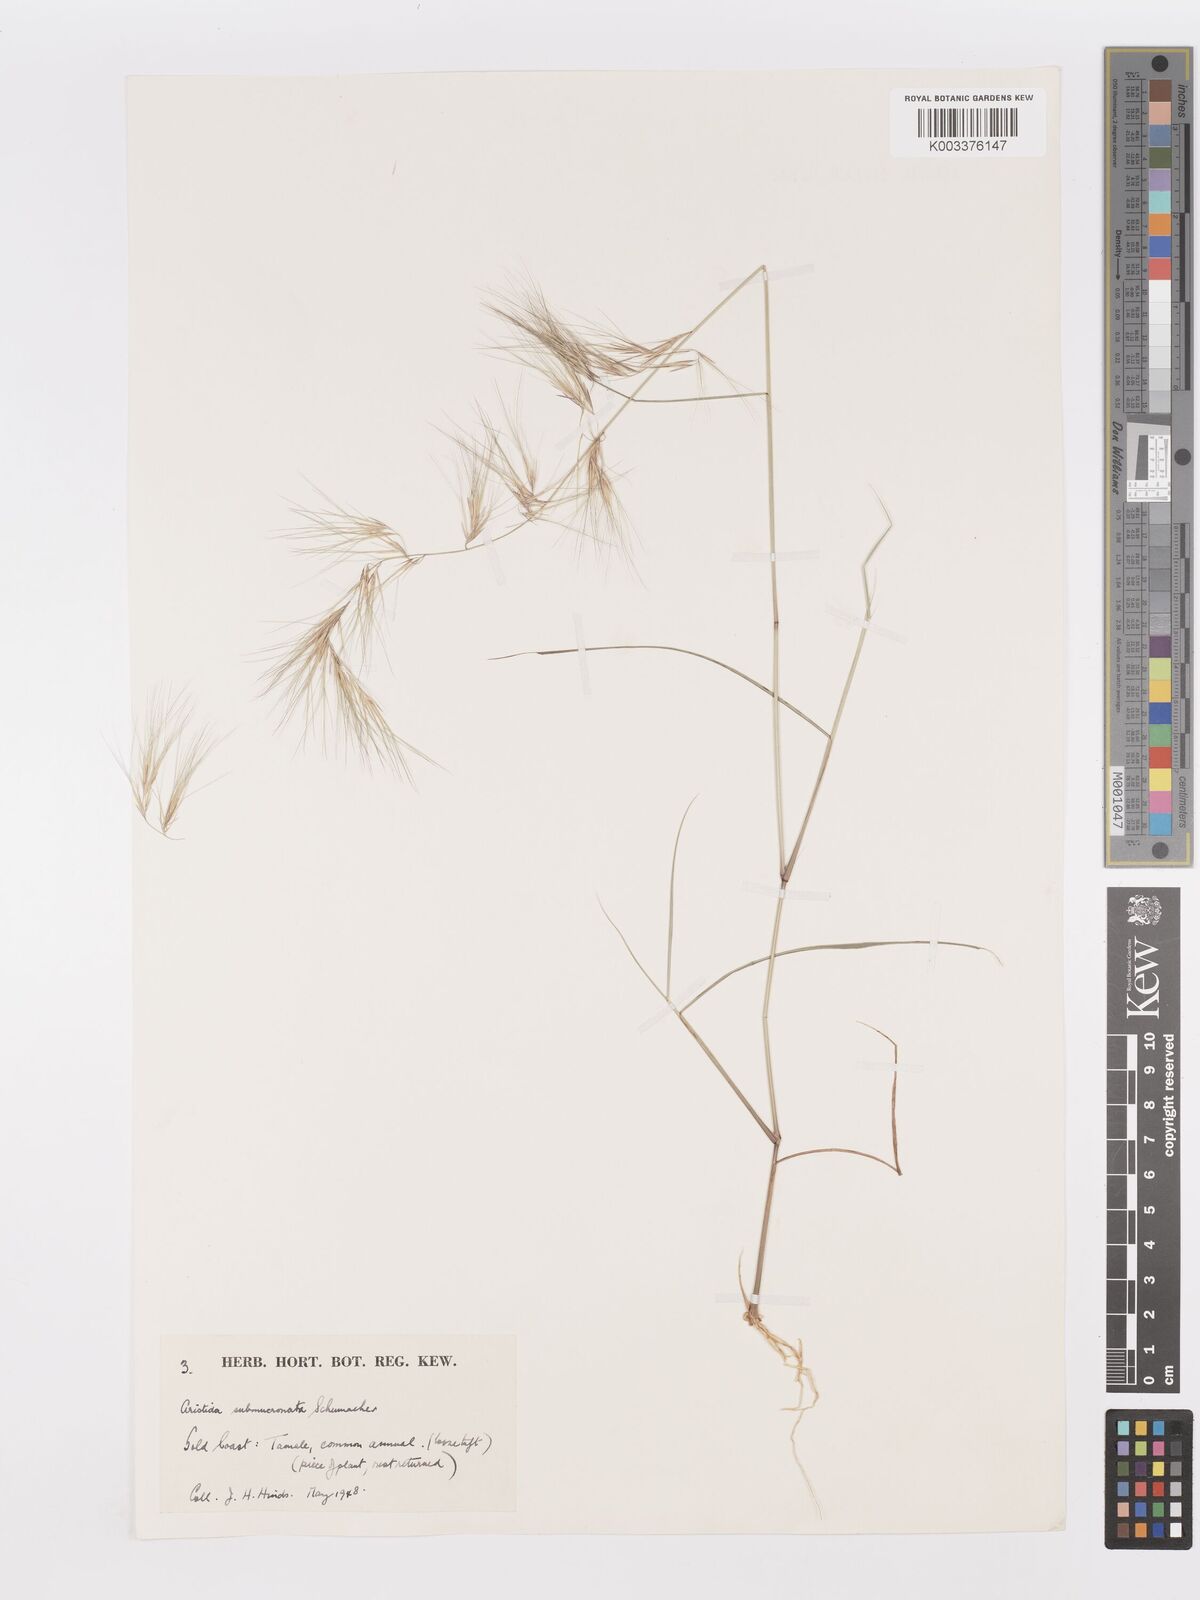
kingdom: Plantae
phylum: Tracheophyta
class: Liliopsida
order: Poales
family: Poaceae
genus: Aristida
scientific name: Aristida adscensionis
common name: Sixweeks threeawn
